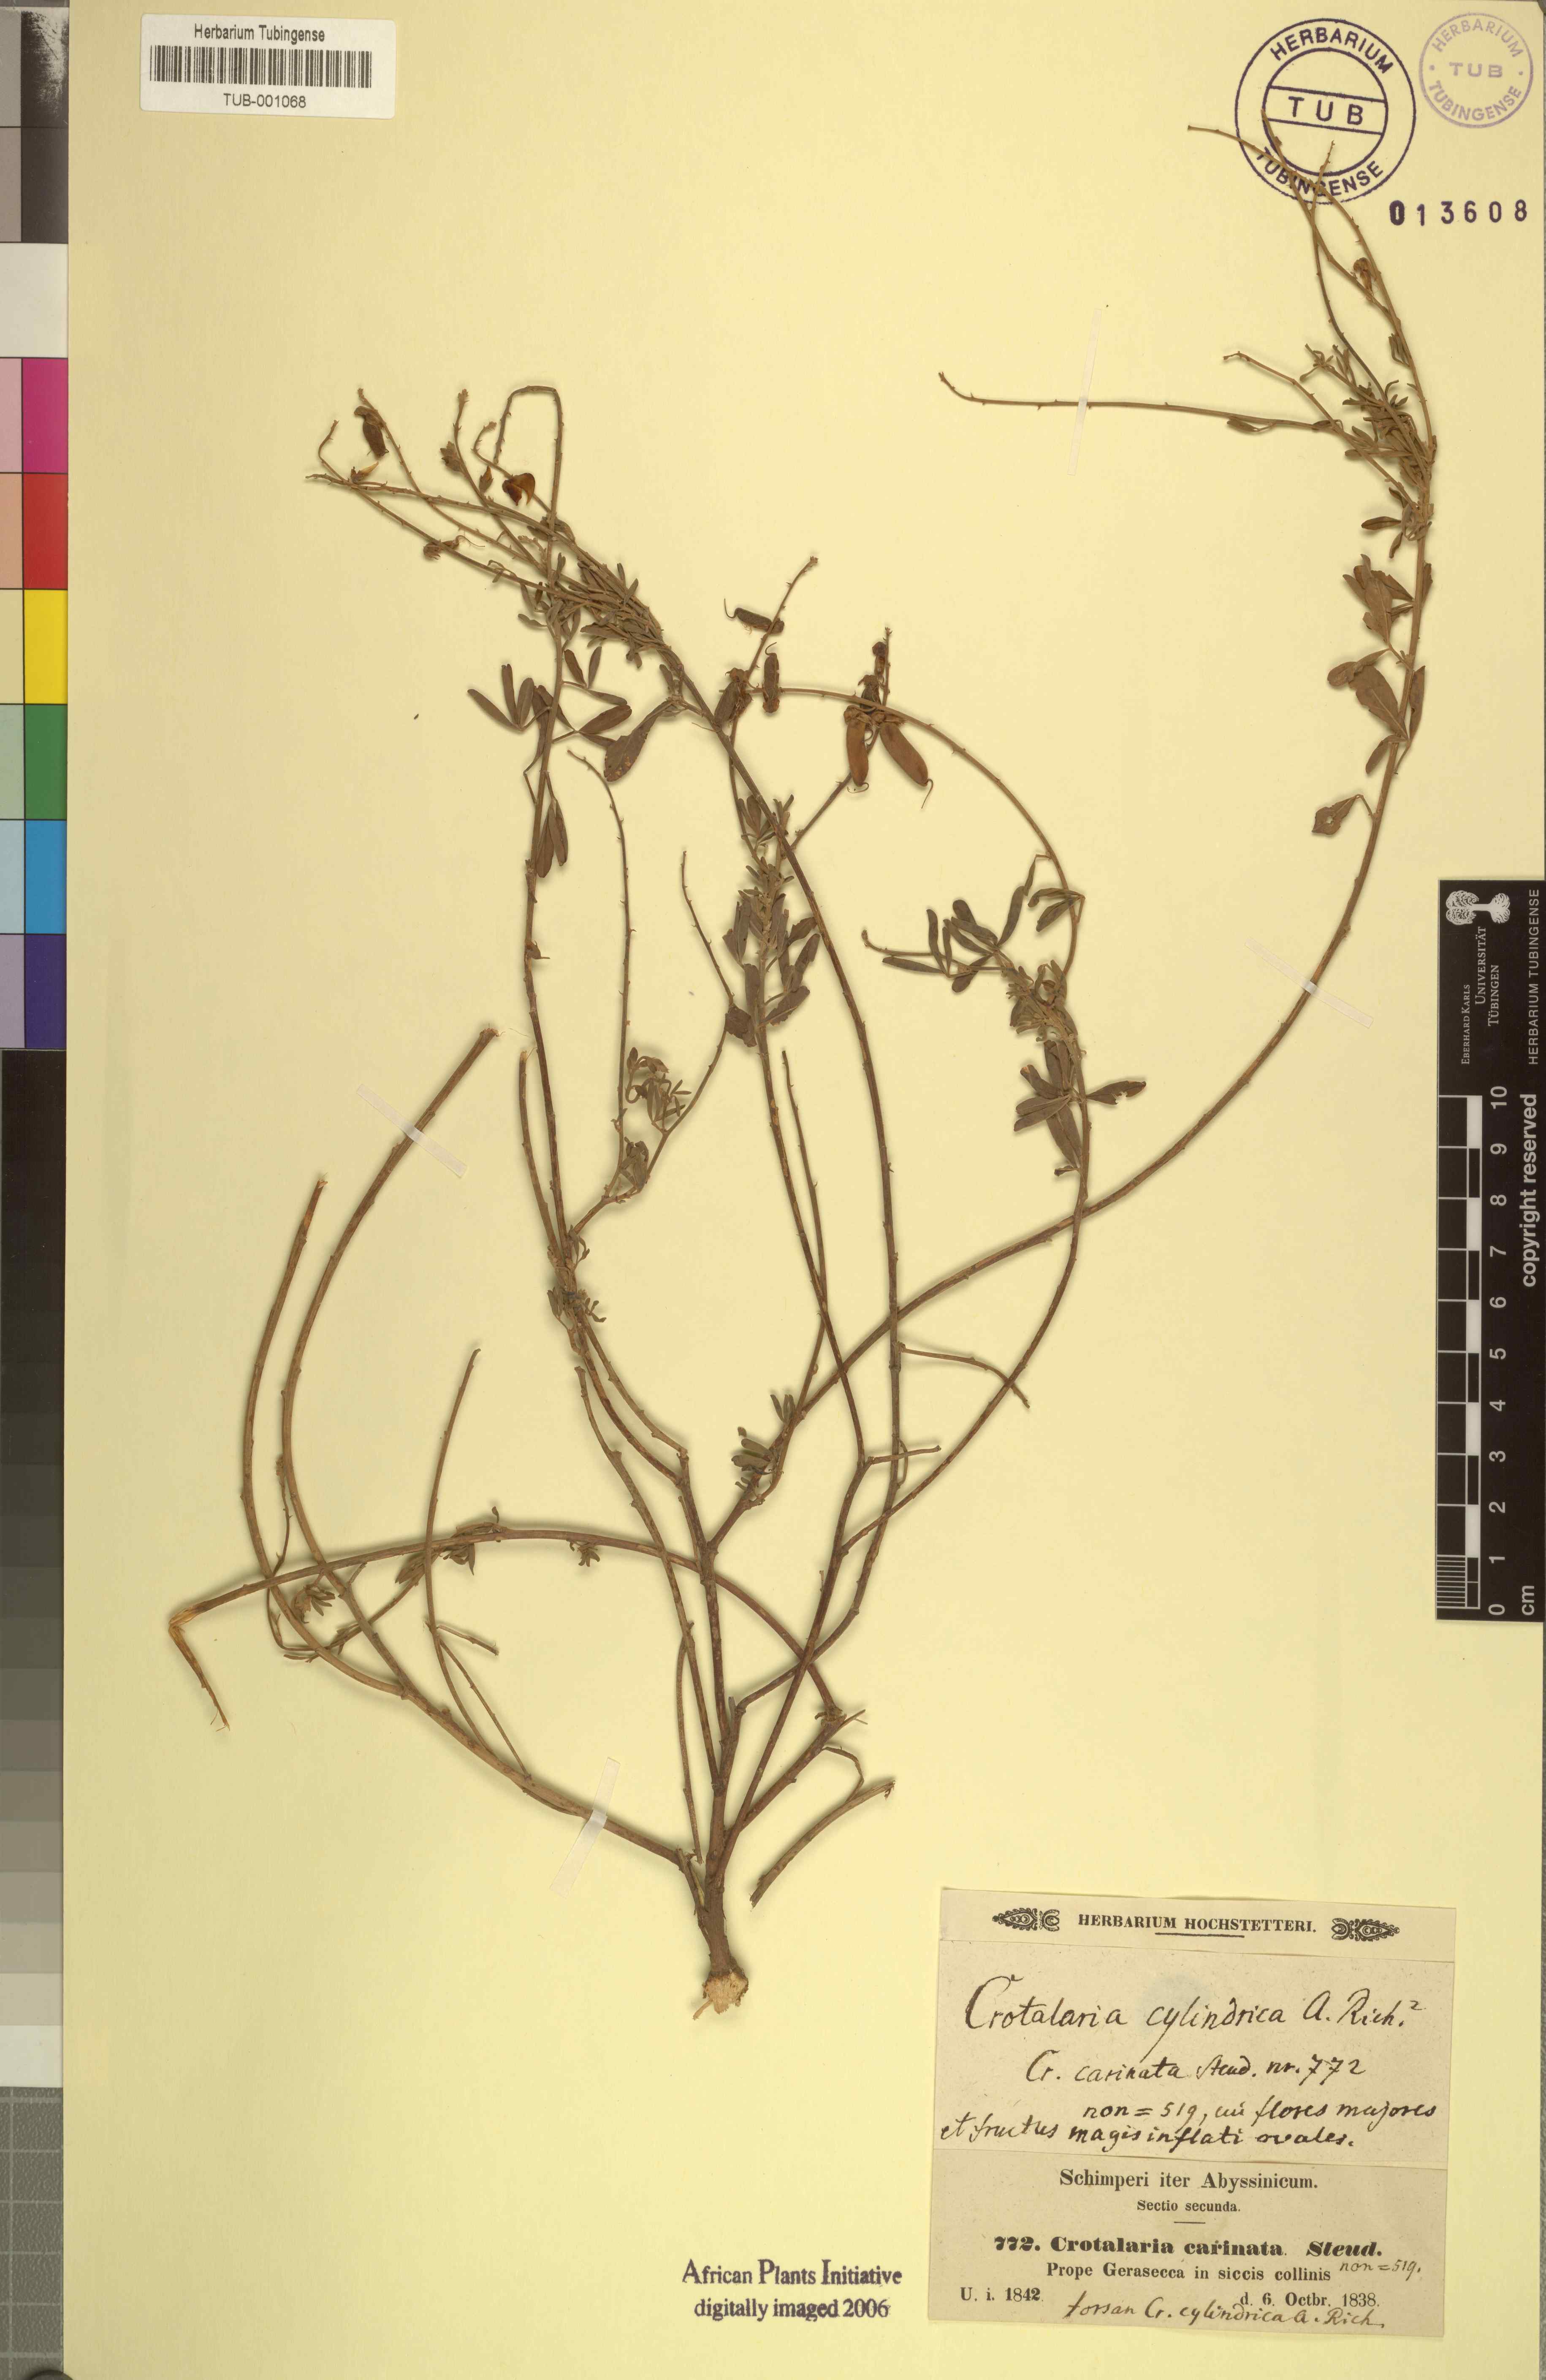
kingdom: Plantae
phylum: Tracheophyta
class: Magnoliopsida
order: Fabales
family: Fabaceae
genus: Crotalaria
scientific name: Crotalaria emarginata
